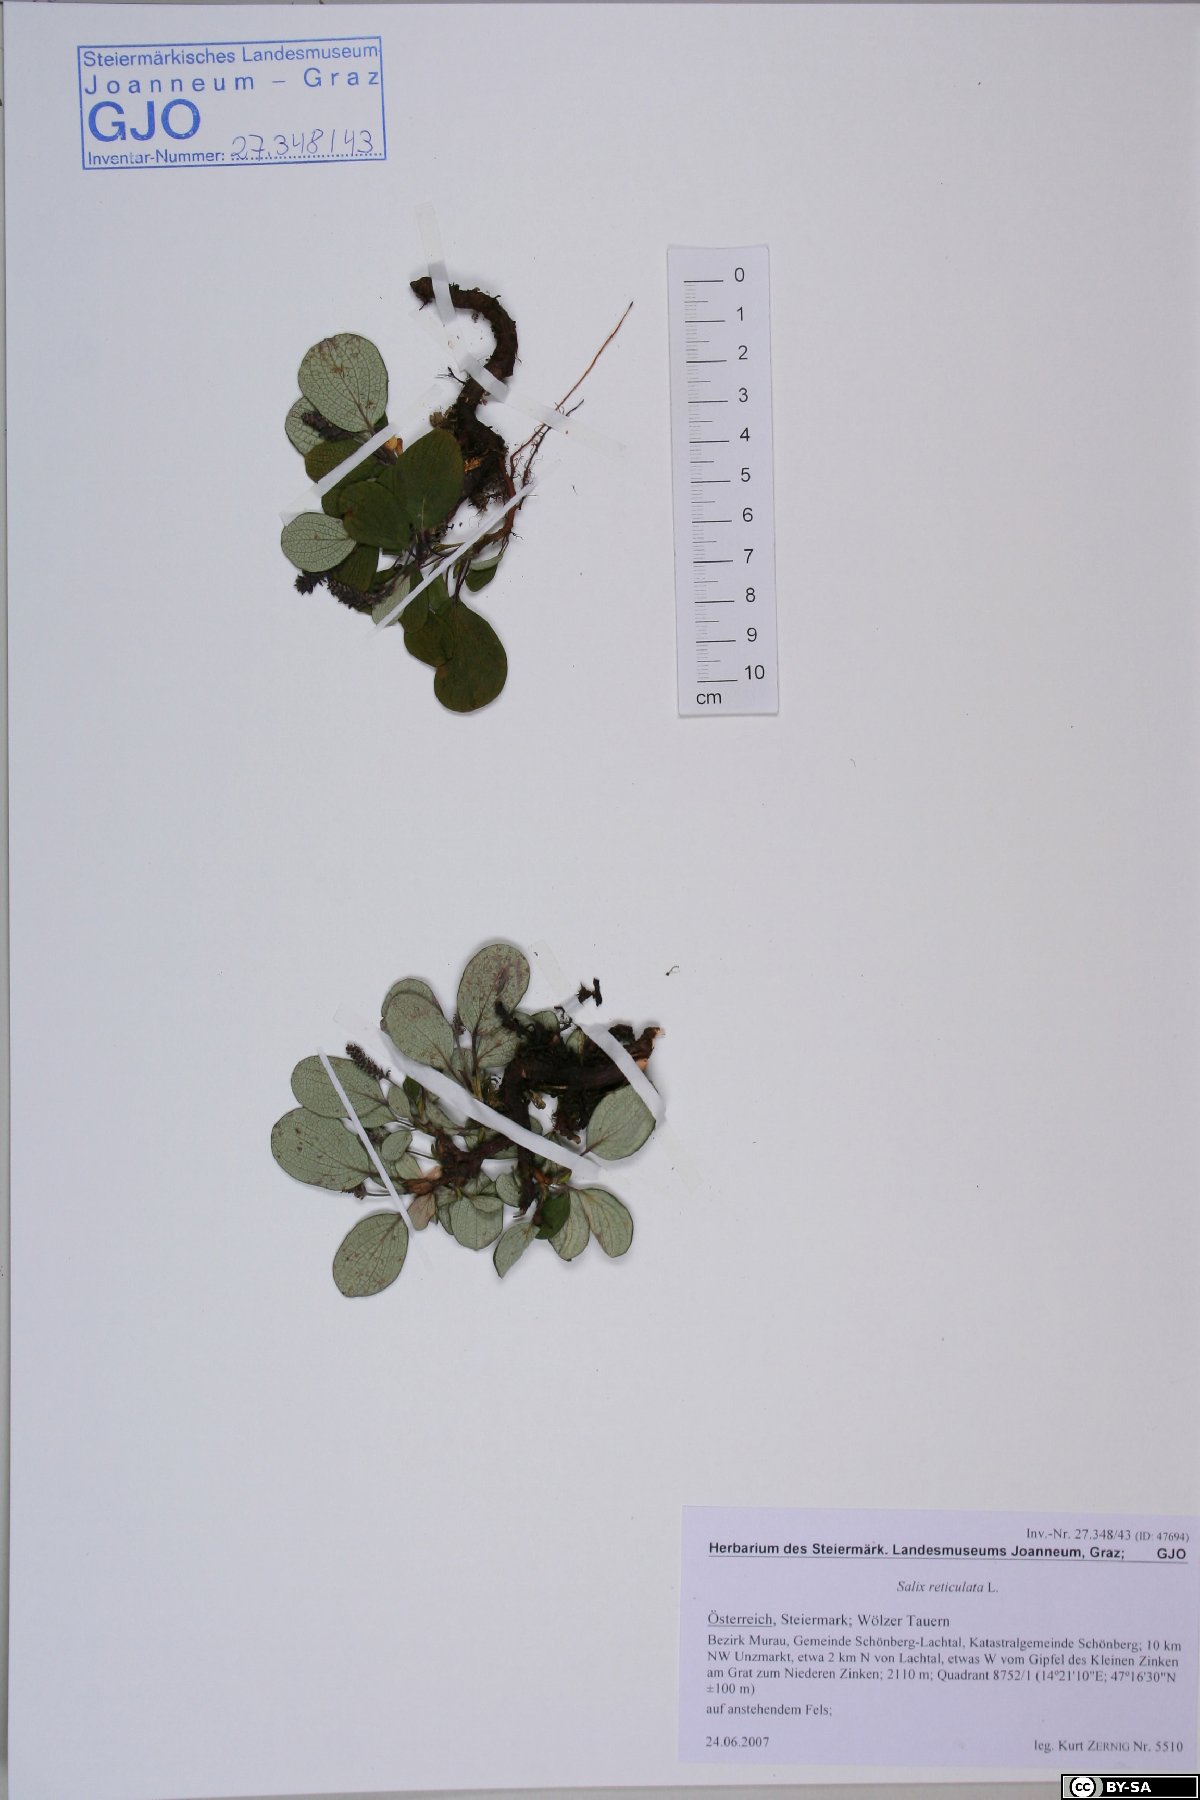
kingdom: Plantae
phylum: Tracheophyta
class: Magnoliopsida
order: Malpighiales
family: Salicaceae
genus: Salix
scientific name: Salix reticulata
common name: Net-leaved willow
